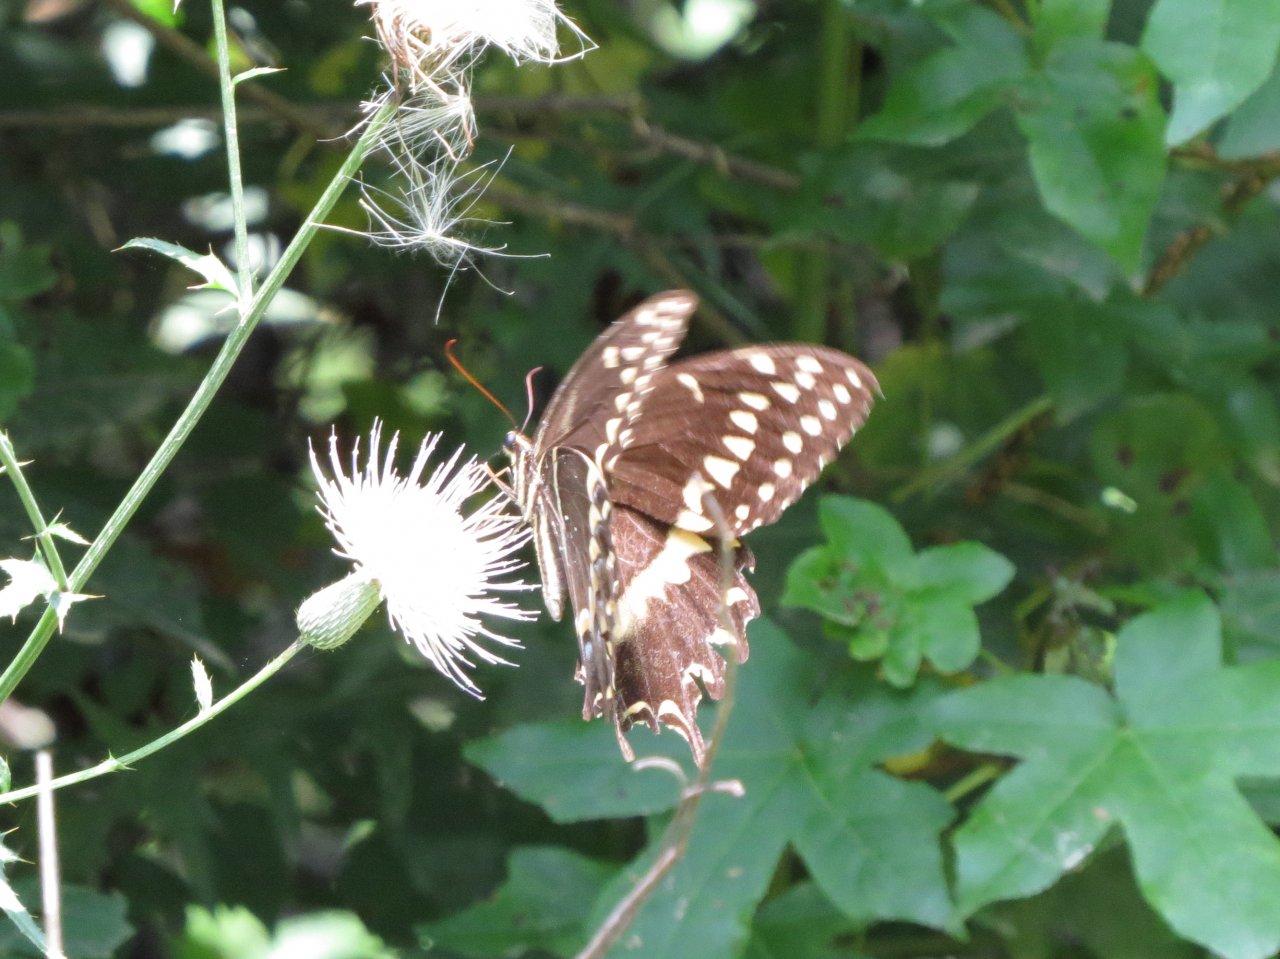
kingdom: Animalia
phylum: Arthropoda
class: Insecta
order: Lepidoptera
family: Papilionidae
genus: Pterourus
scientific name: Pterourus palamedes
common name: Palamedes Swallowtail
